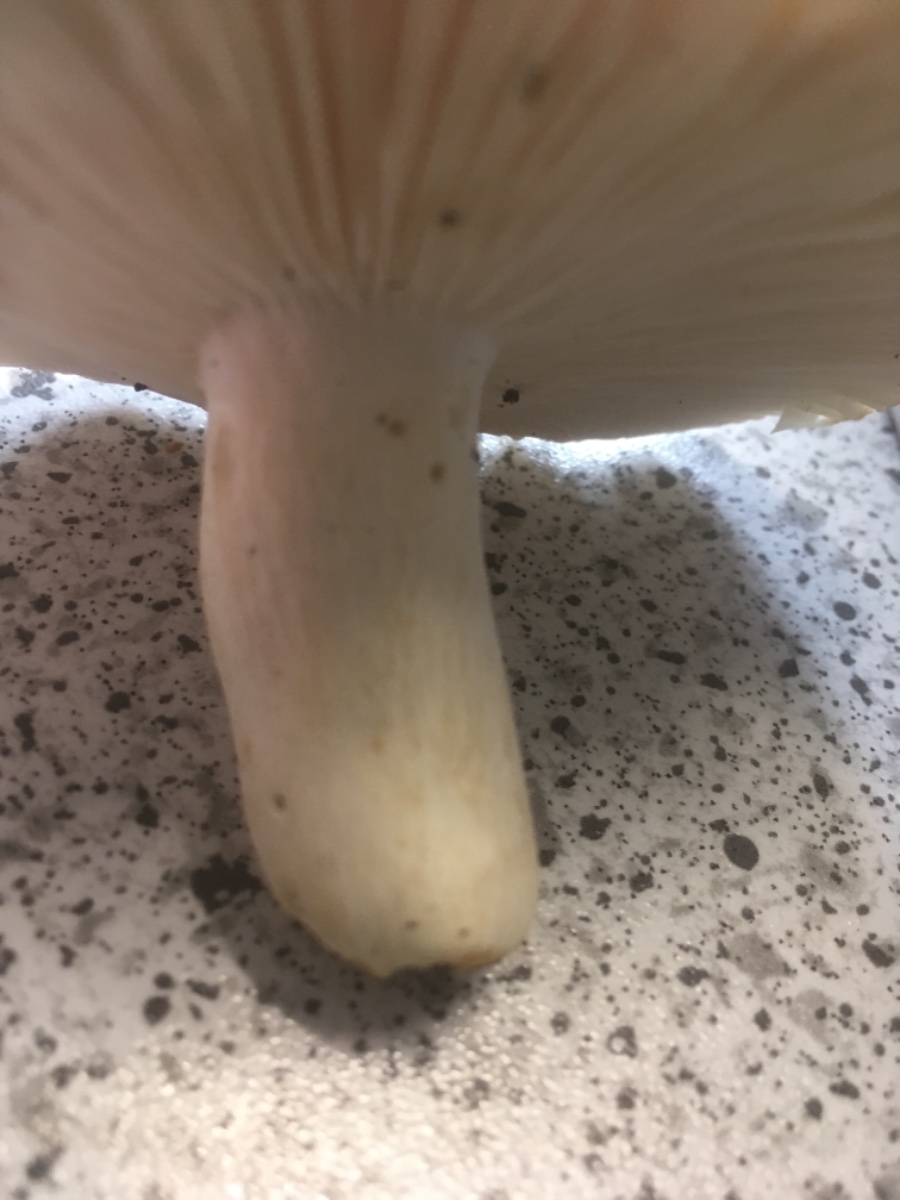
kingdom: Fungi
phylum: Basidiomycota
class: Agaricomycetes
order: Russulales
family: Russulaceae
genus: Russula
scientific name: Russula vesca
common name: spiselig skørhat
